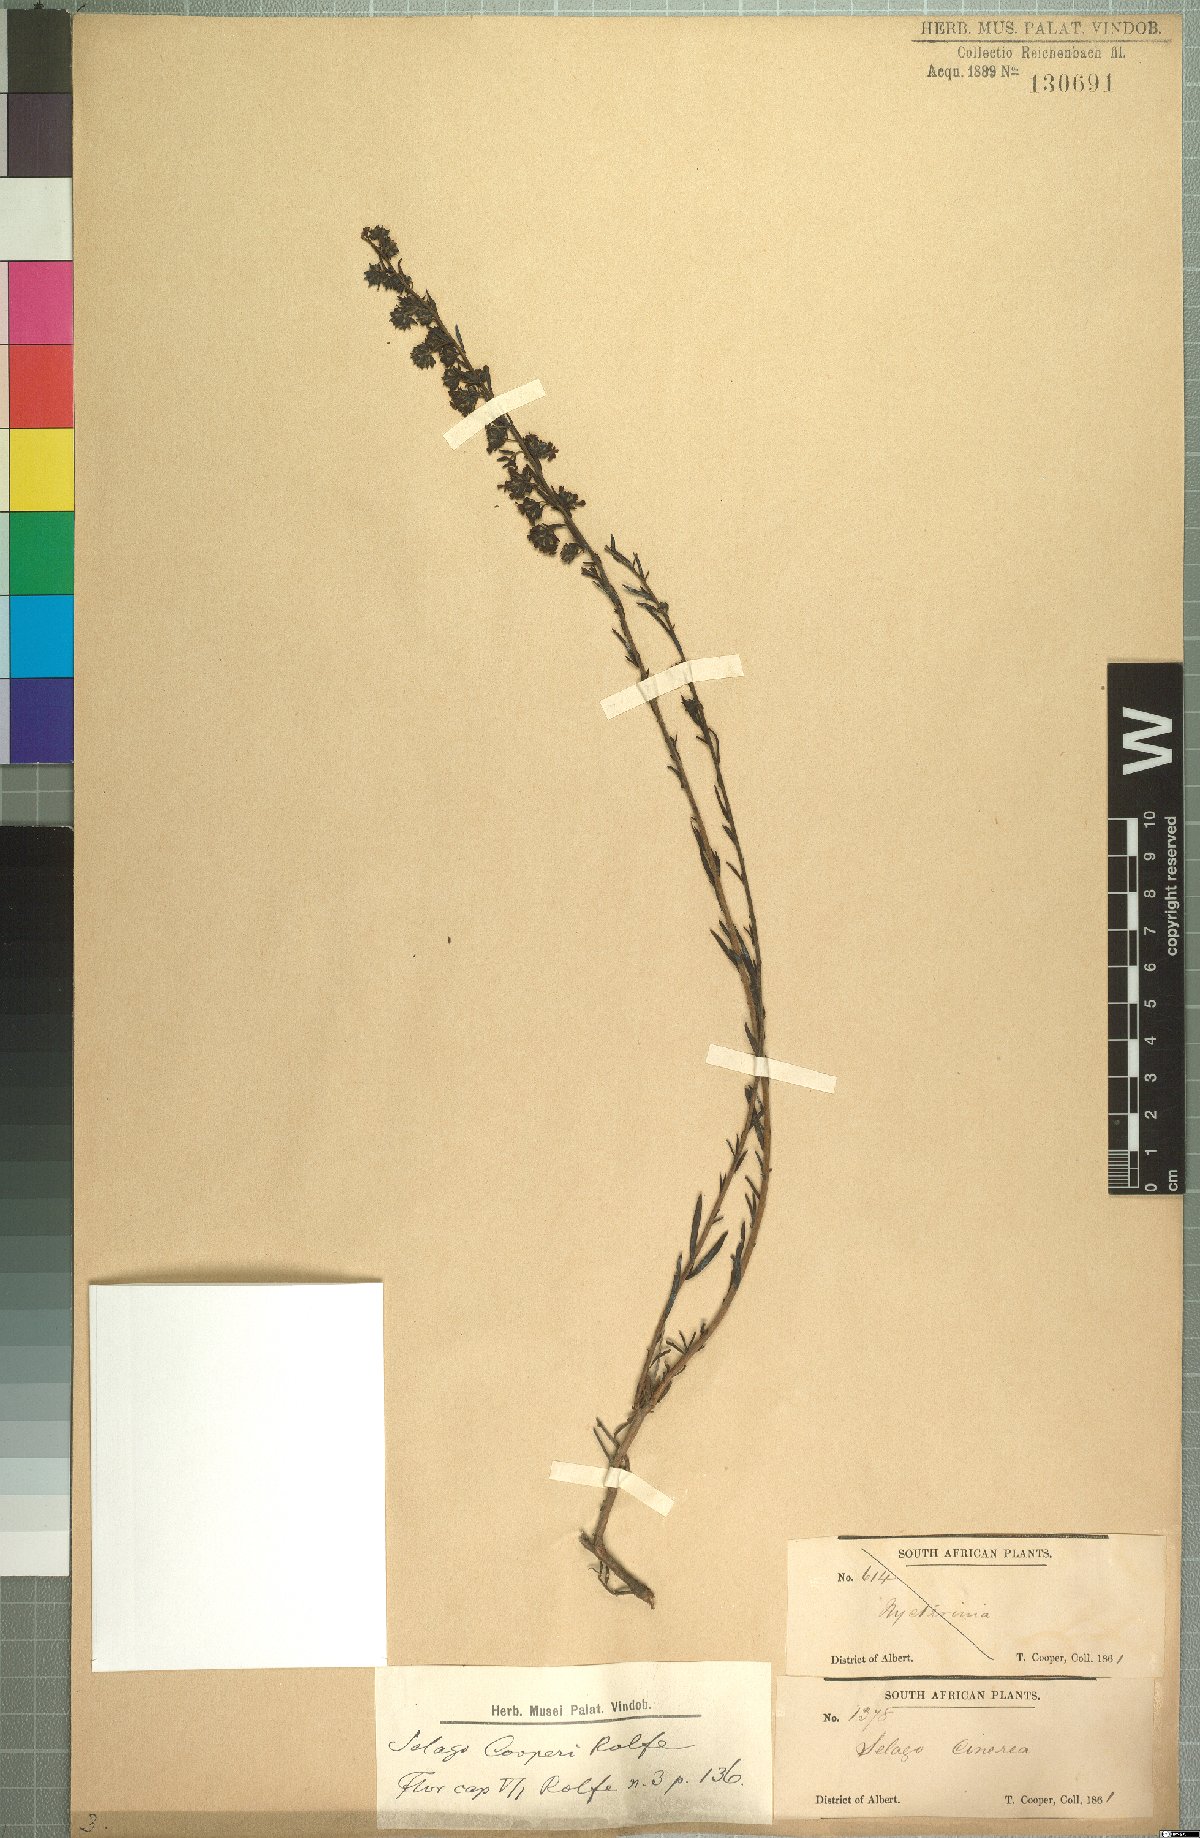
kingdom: Plantae
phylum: Tracheophyta
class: Magnoliopsida
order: Lamiales
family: Scrophulariaceae
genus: Selago
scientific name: Selago galpinii
